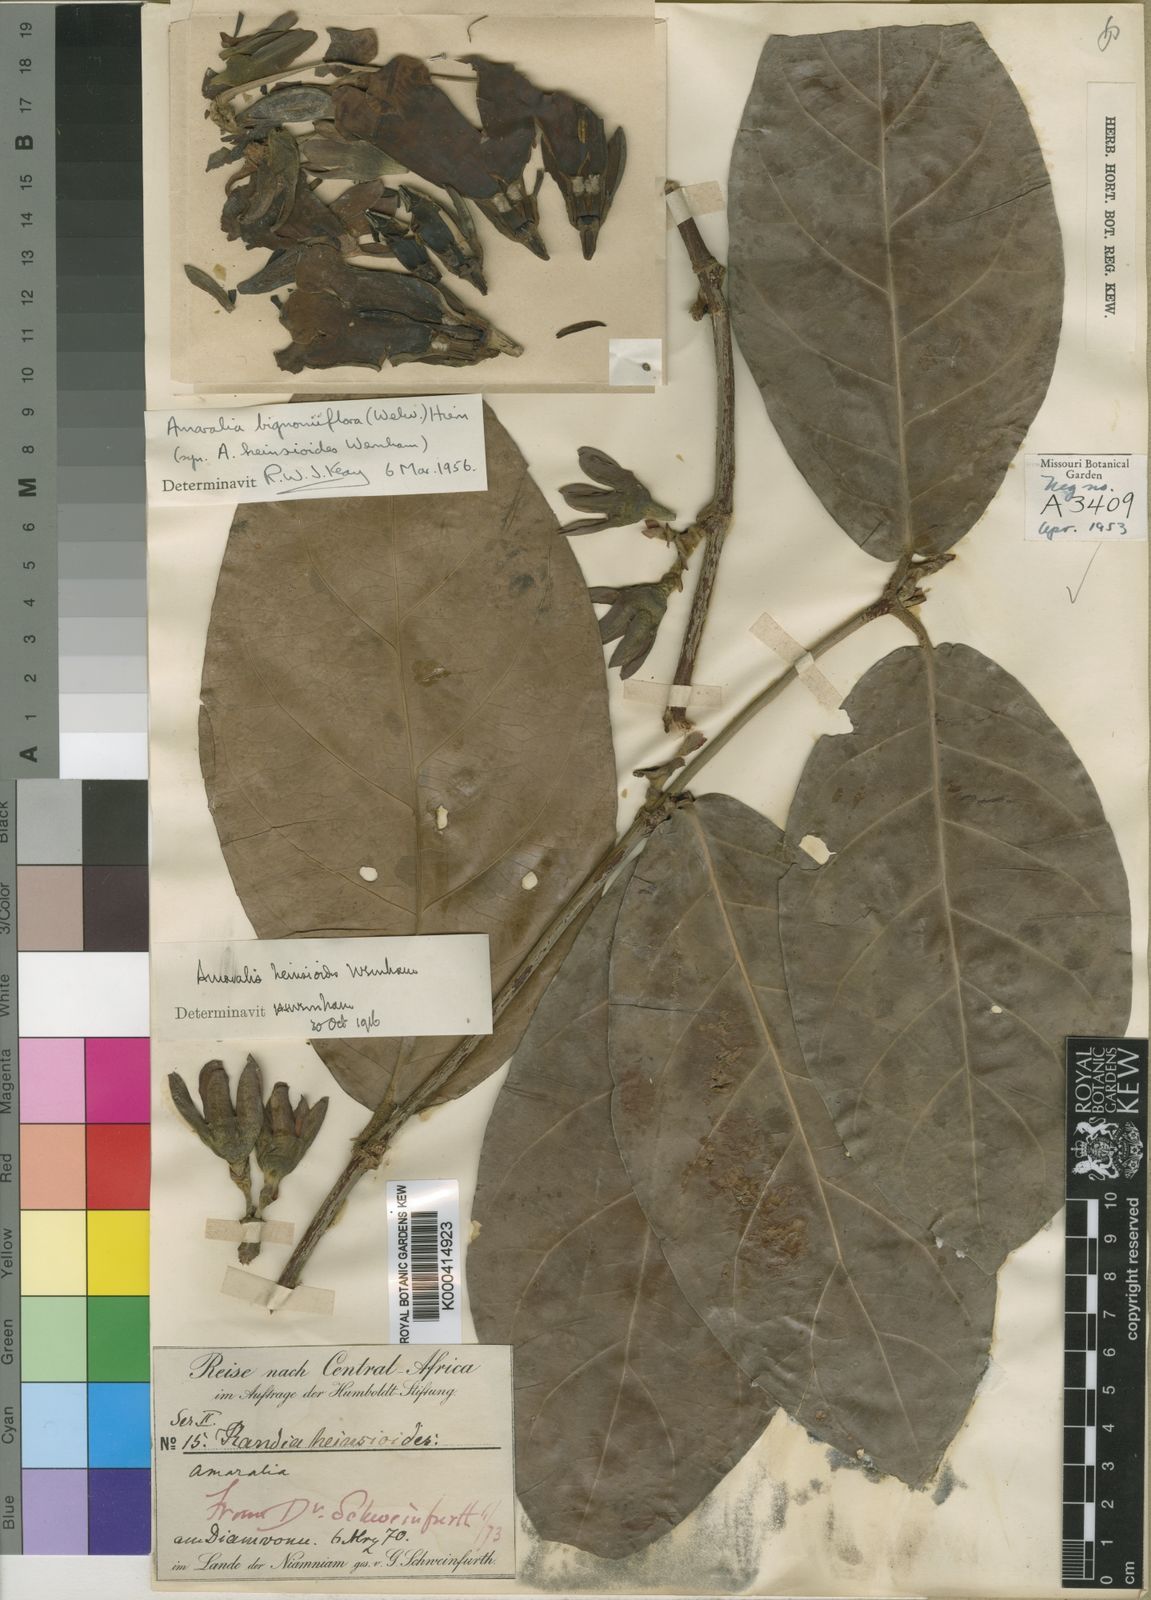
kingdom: Plantae
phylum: Tracheophyta
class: Magnoliopsida
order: Gentianales
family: Rubiaceae
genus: Sherbournia
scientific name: Sherbournia bignoniiflora
